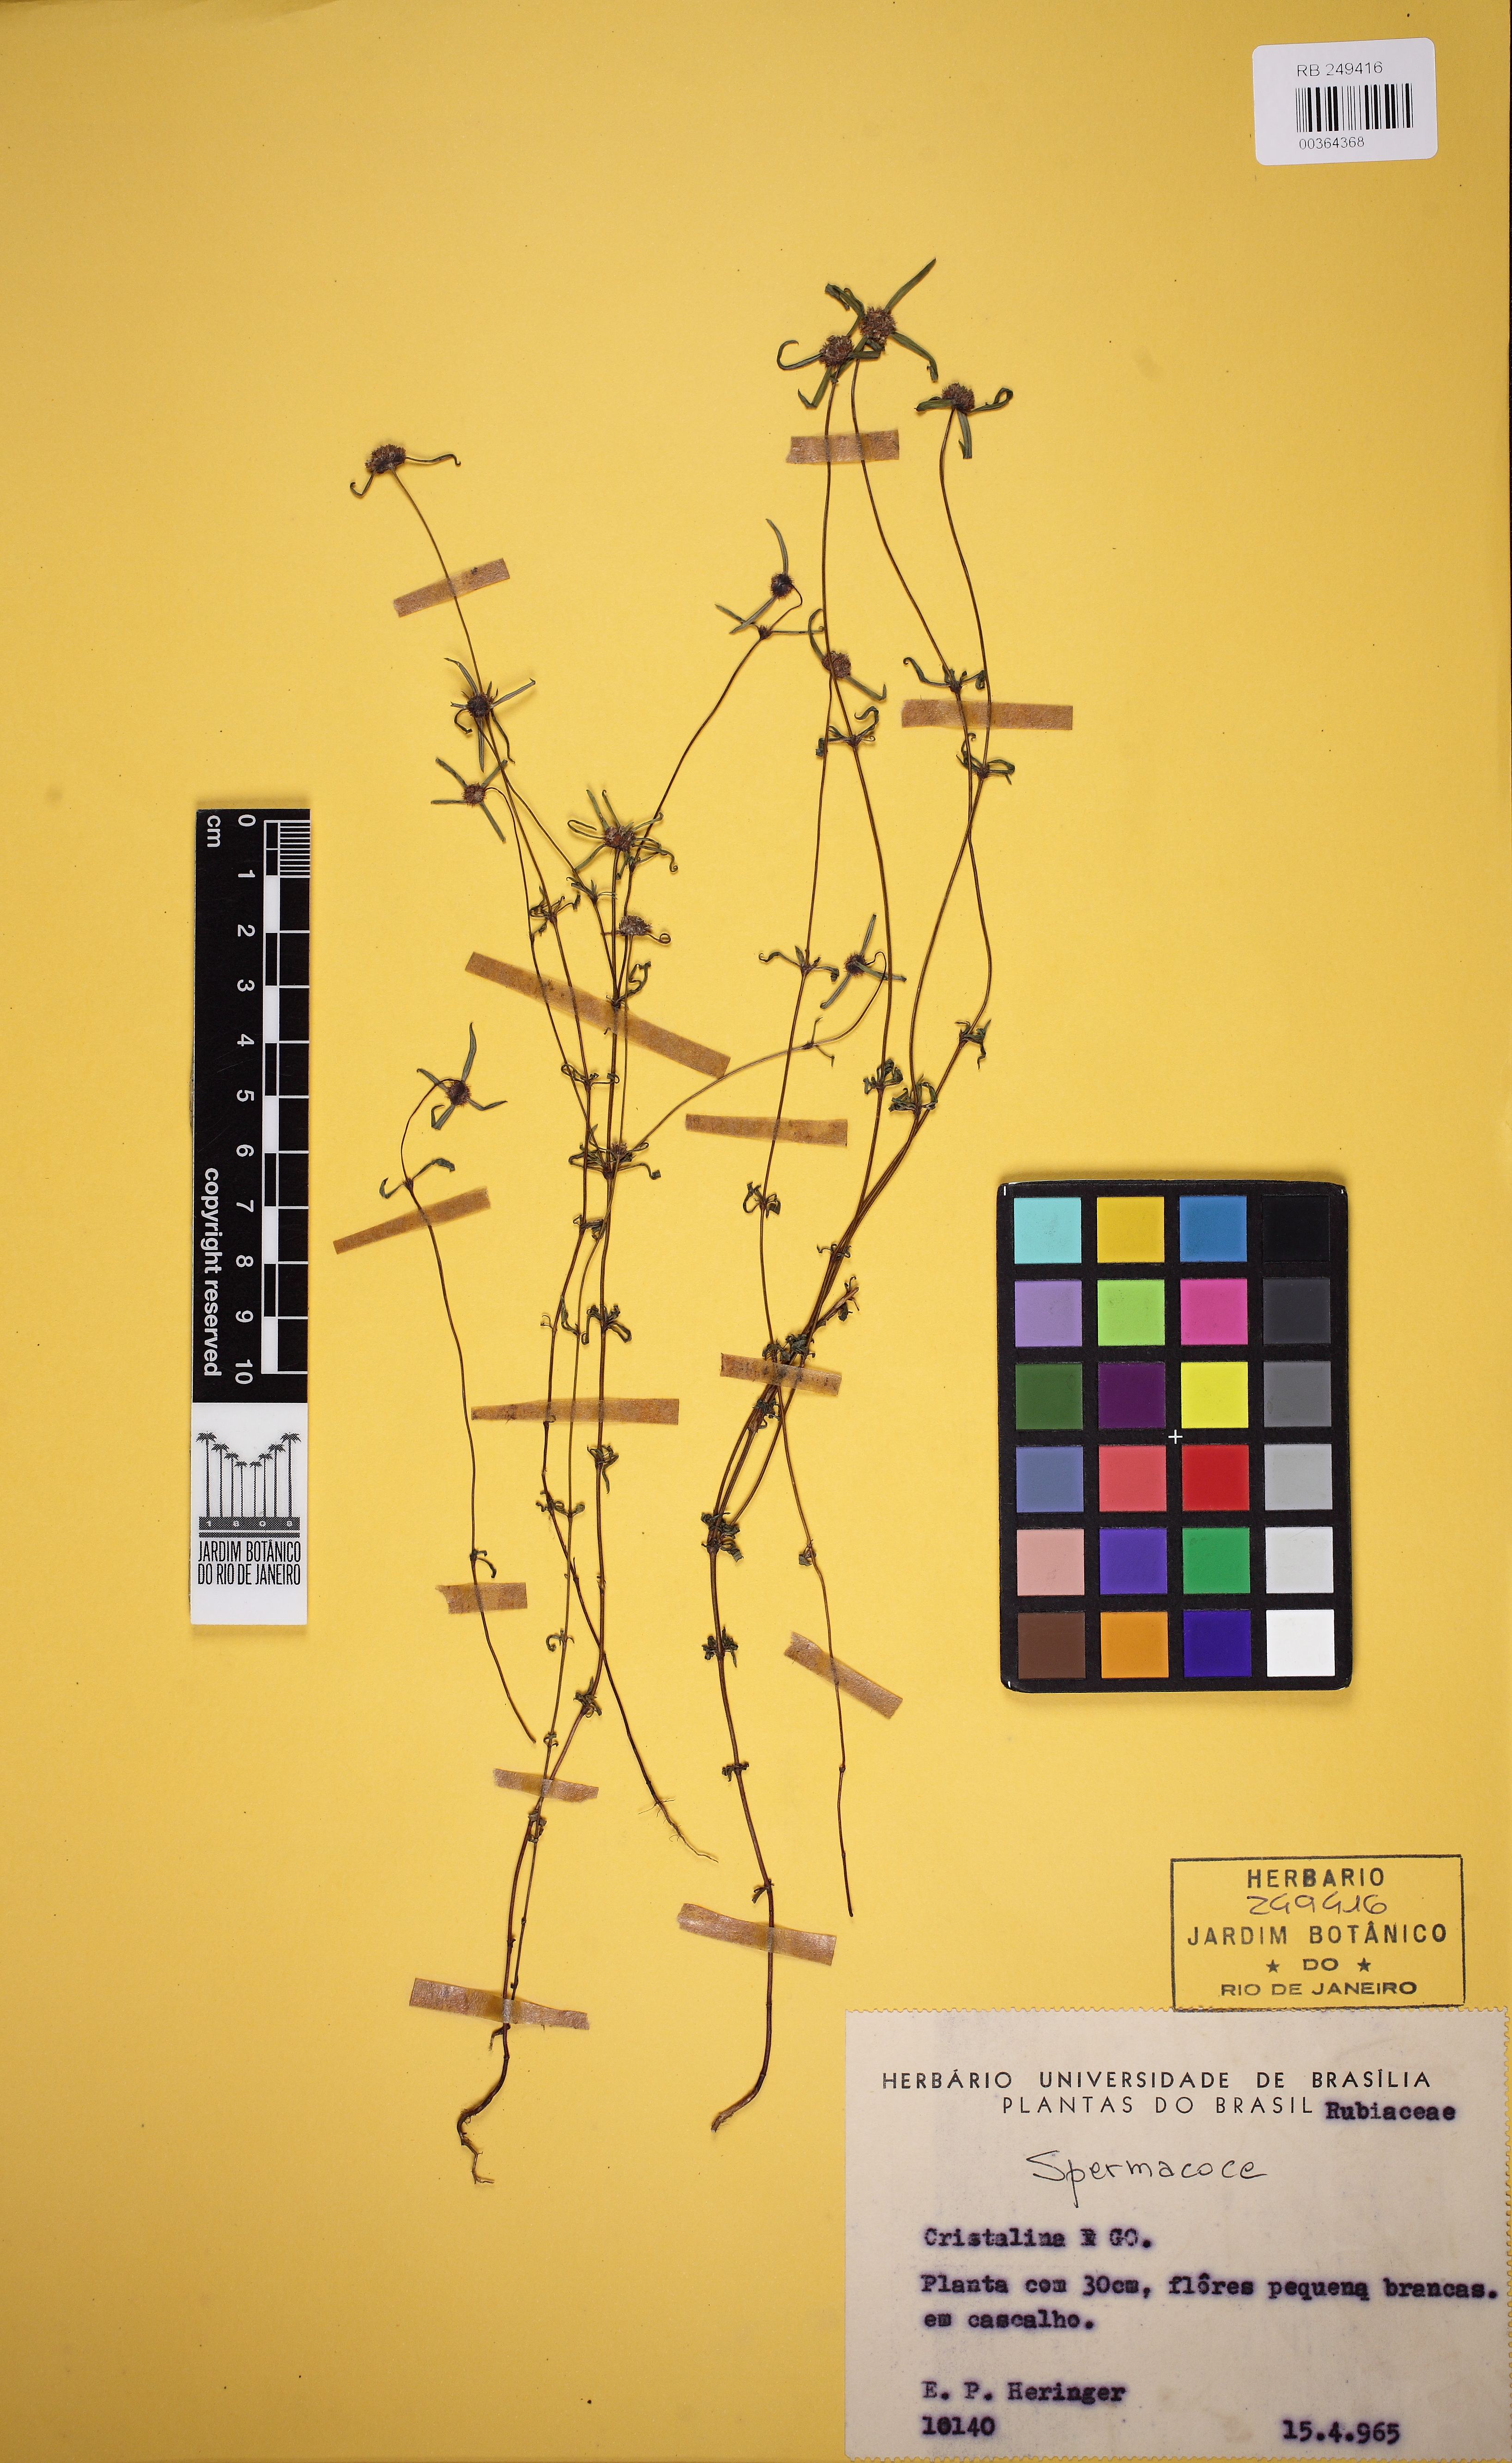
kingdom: Plantae
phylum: Tracheophyta
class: Magnoliopsida
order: Gentianales
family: Rubiaceae
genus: Spermacoce
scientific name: Spermacoce schumanniana
